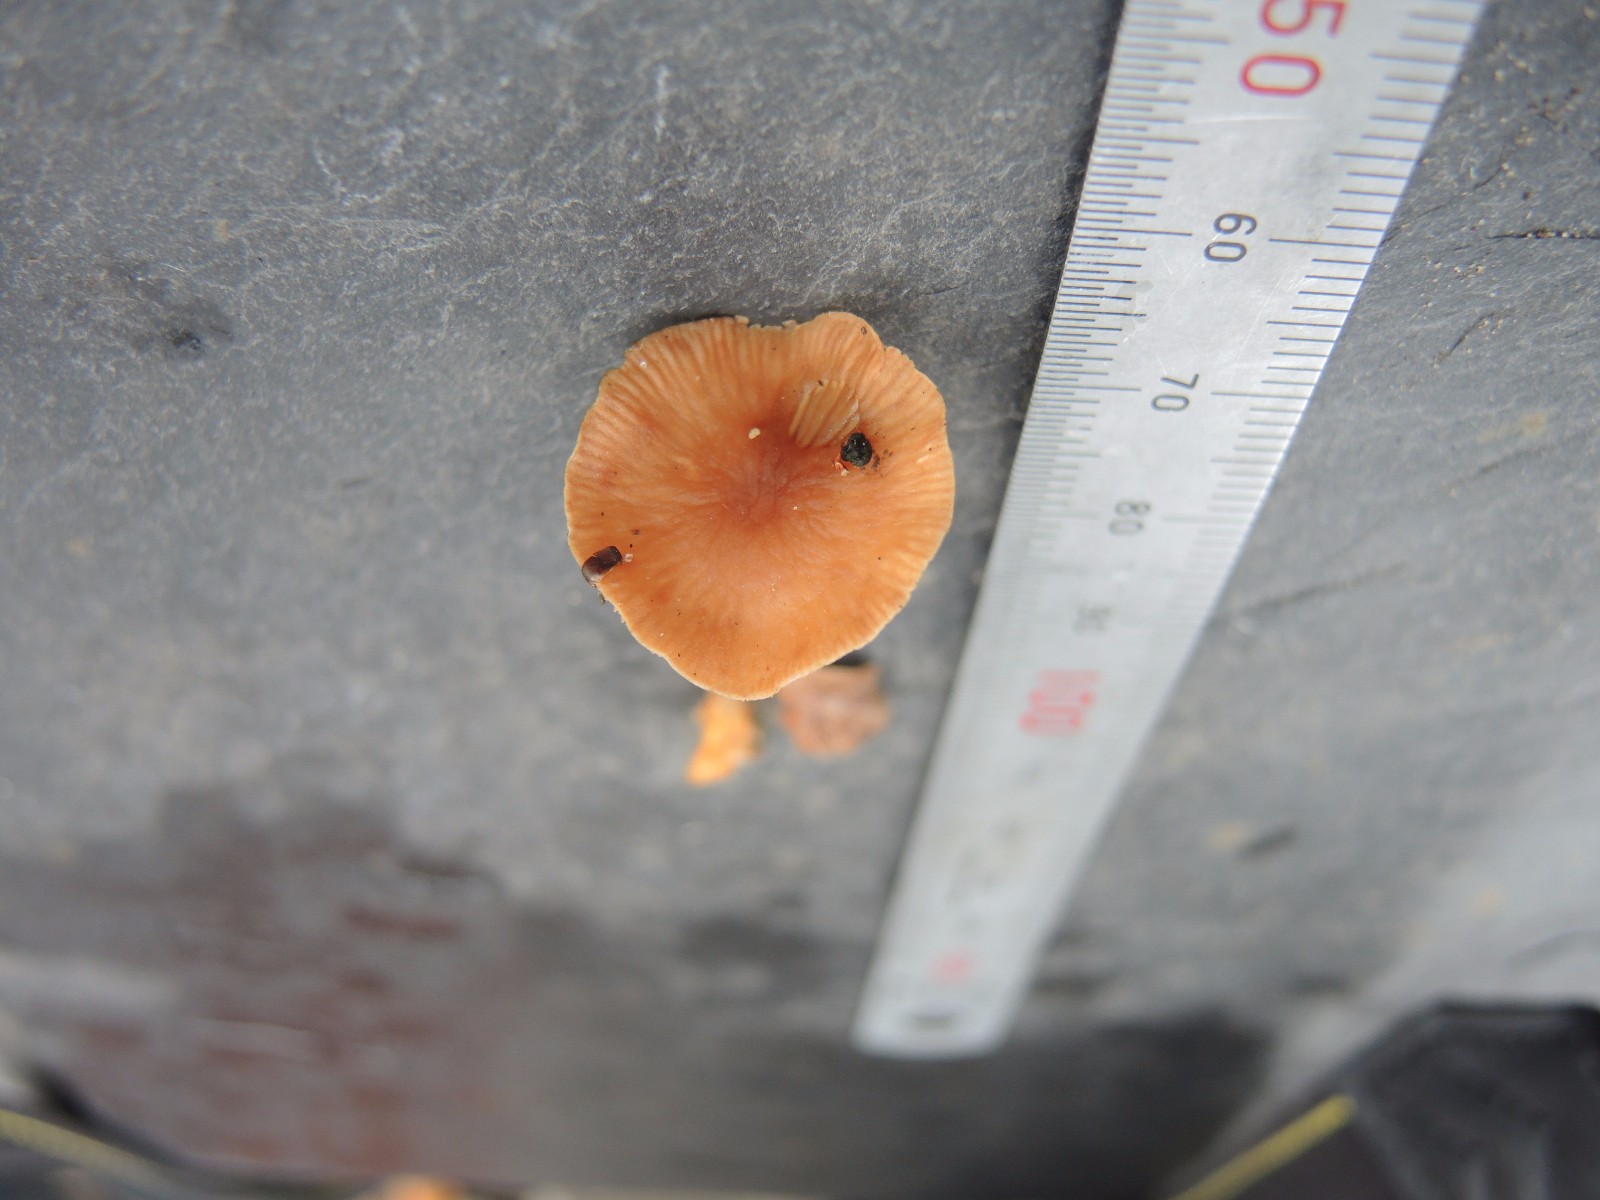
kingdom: Fungi
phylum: Basidiomycota
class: Agaricomycetes
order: Agaricales
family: Omphalotaceae
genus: Gymnopus
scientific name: Gymnopus fagiphilus
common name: bøgeløv-fladhat
